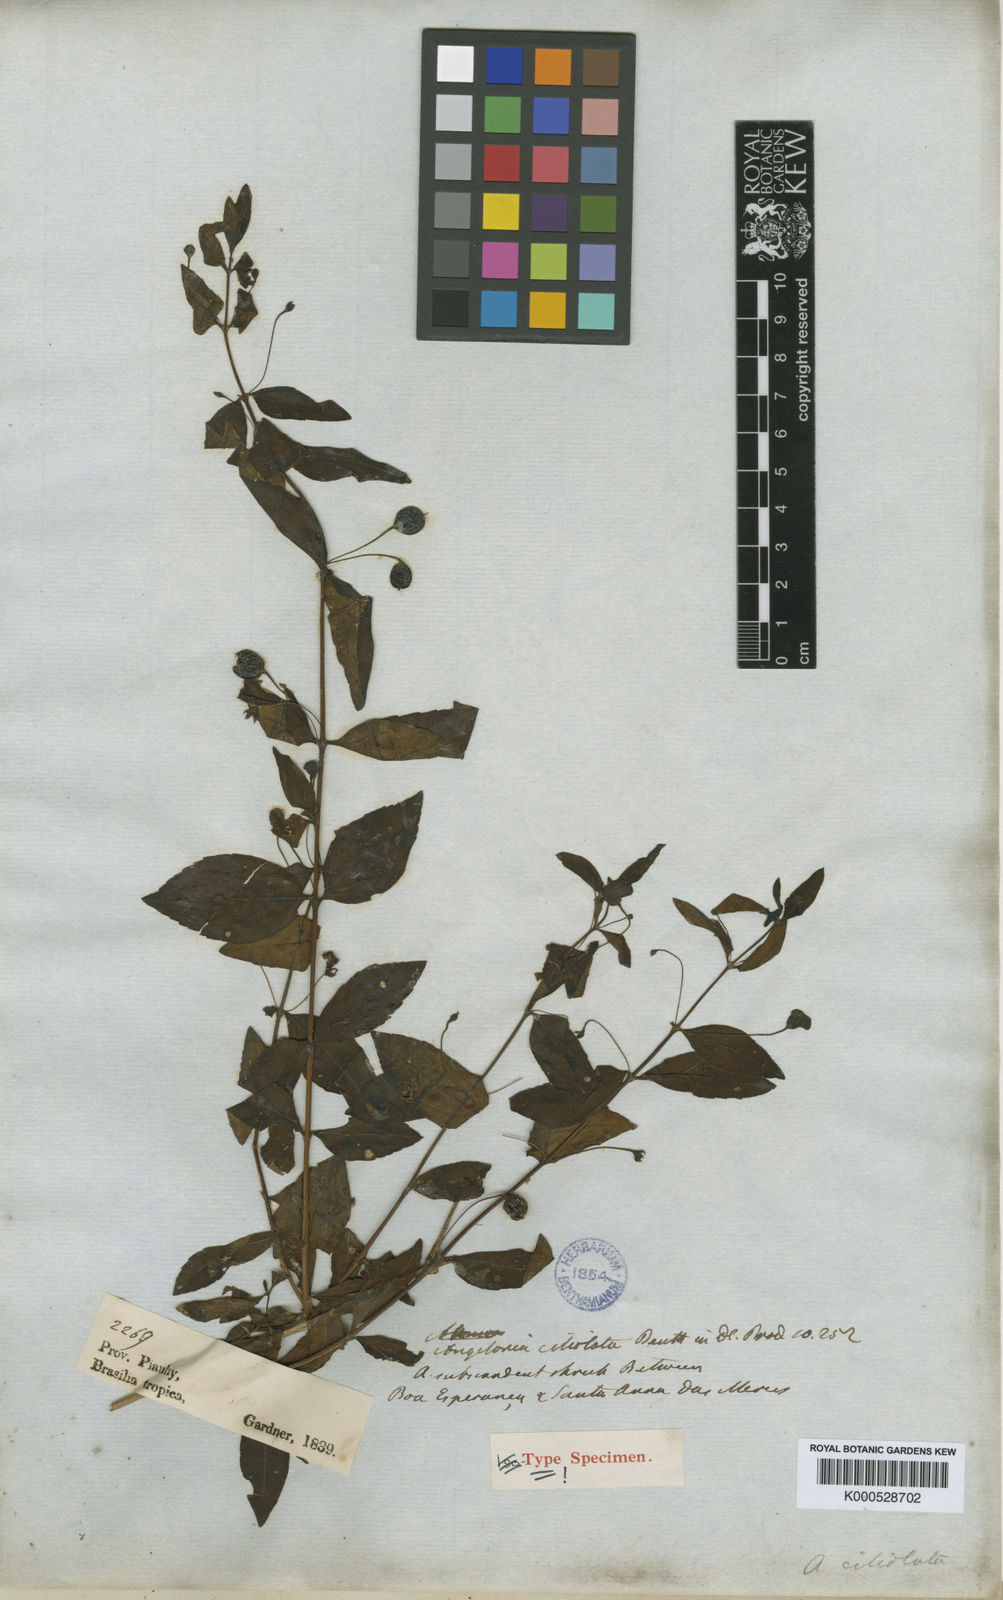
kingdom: Plantae
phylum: Tracheophyta
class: Magnoliopsida
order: Lamiales
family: Plantaginaceae
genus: Angelonia
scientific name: Angelonia campestris
